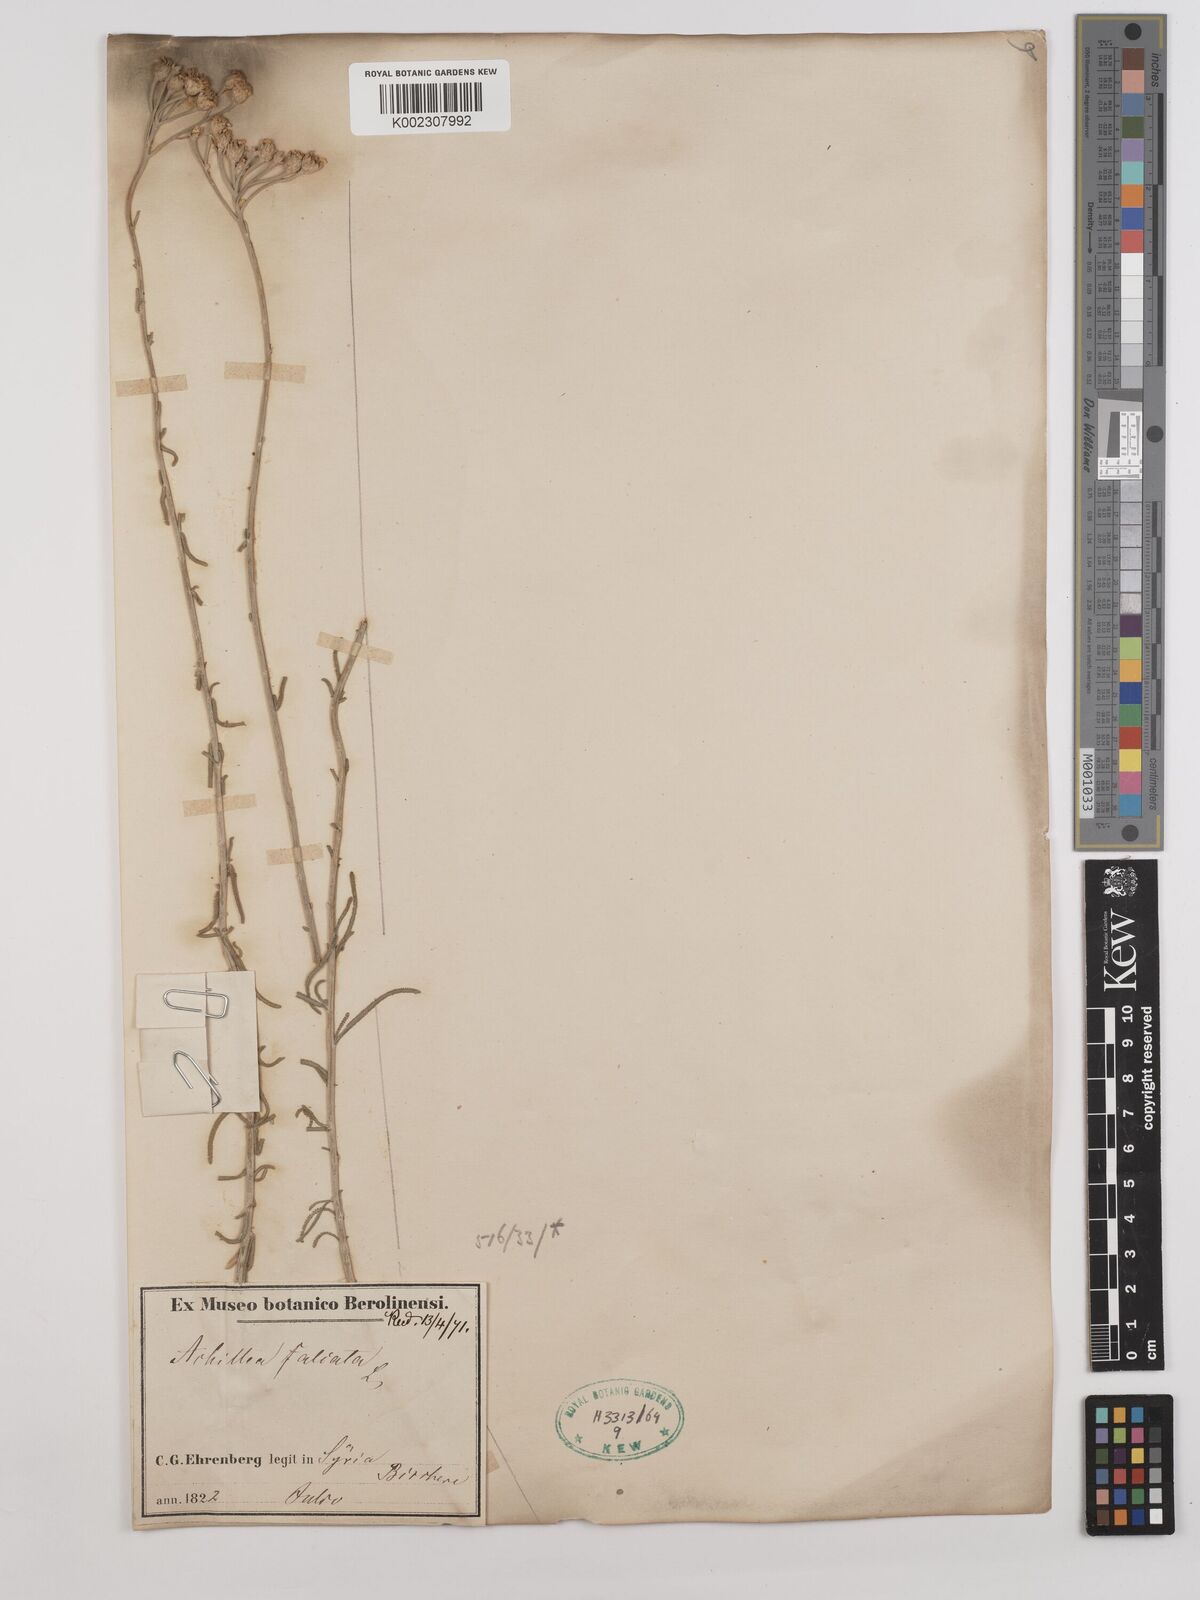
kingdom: Plantae
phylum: Tracheophyta
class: Magnoliopsida
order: Asterales
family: Asteraceae
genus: Achillea
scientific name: Achillea falcata
